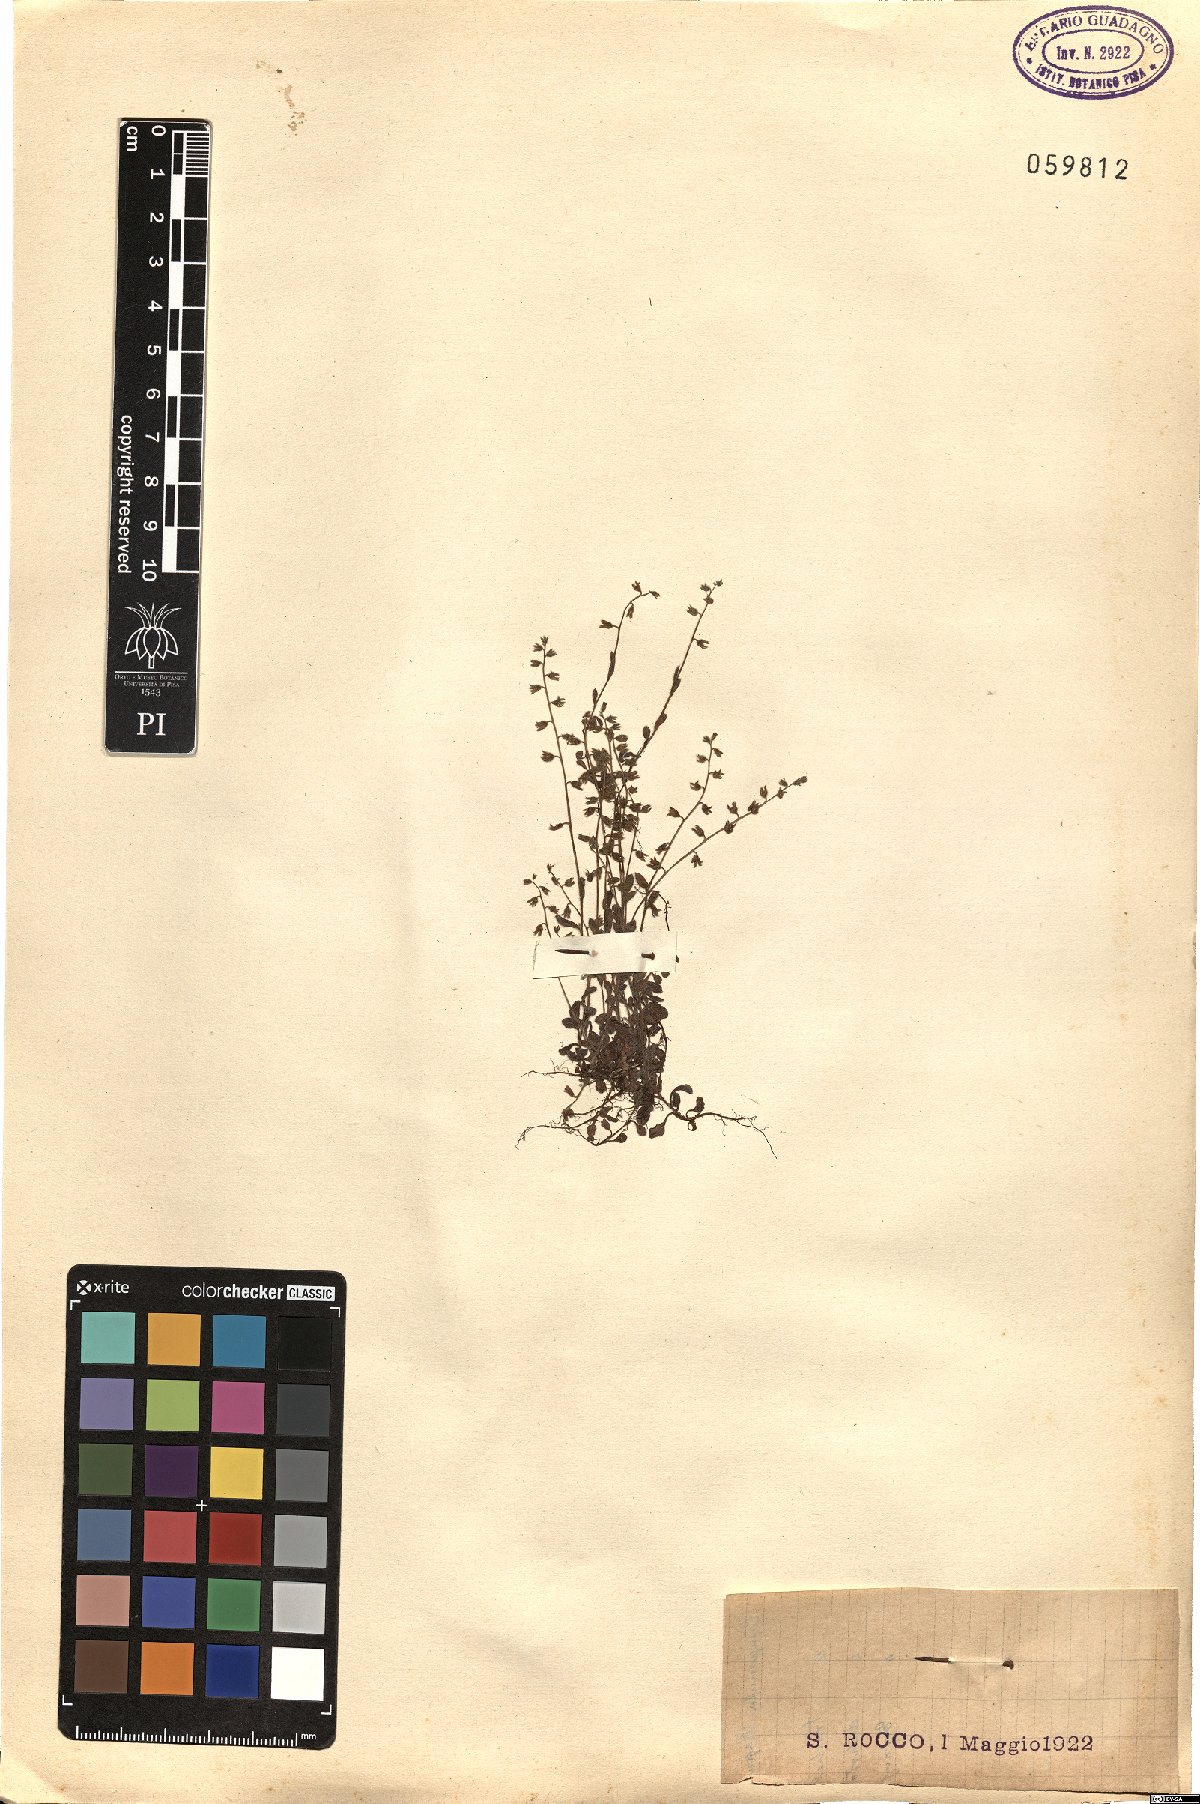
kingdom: Plantae
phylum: Tracheophyta
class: Magnoliopsida
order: Boraginales
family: Boraginaceae
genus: Myosotis
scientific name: Myosotis
